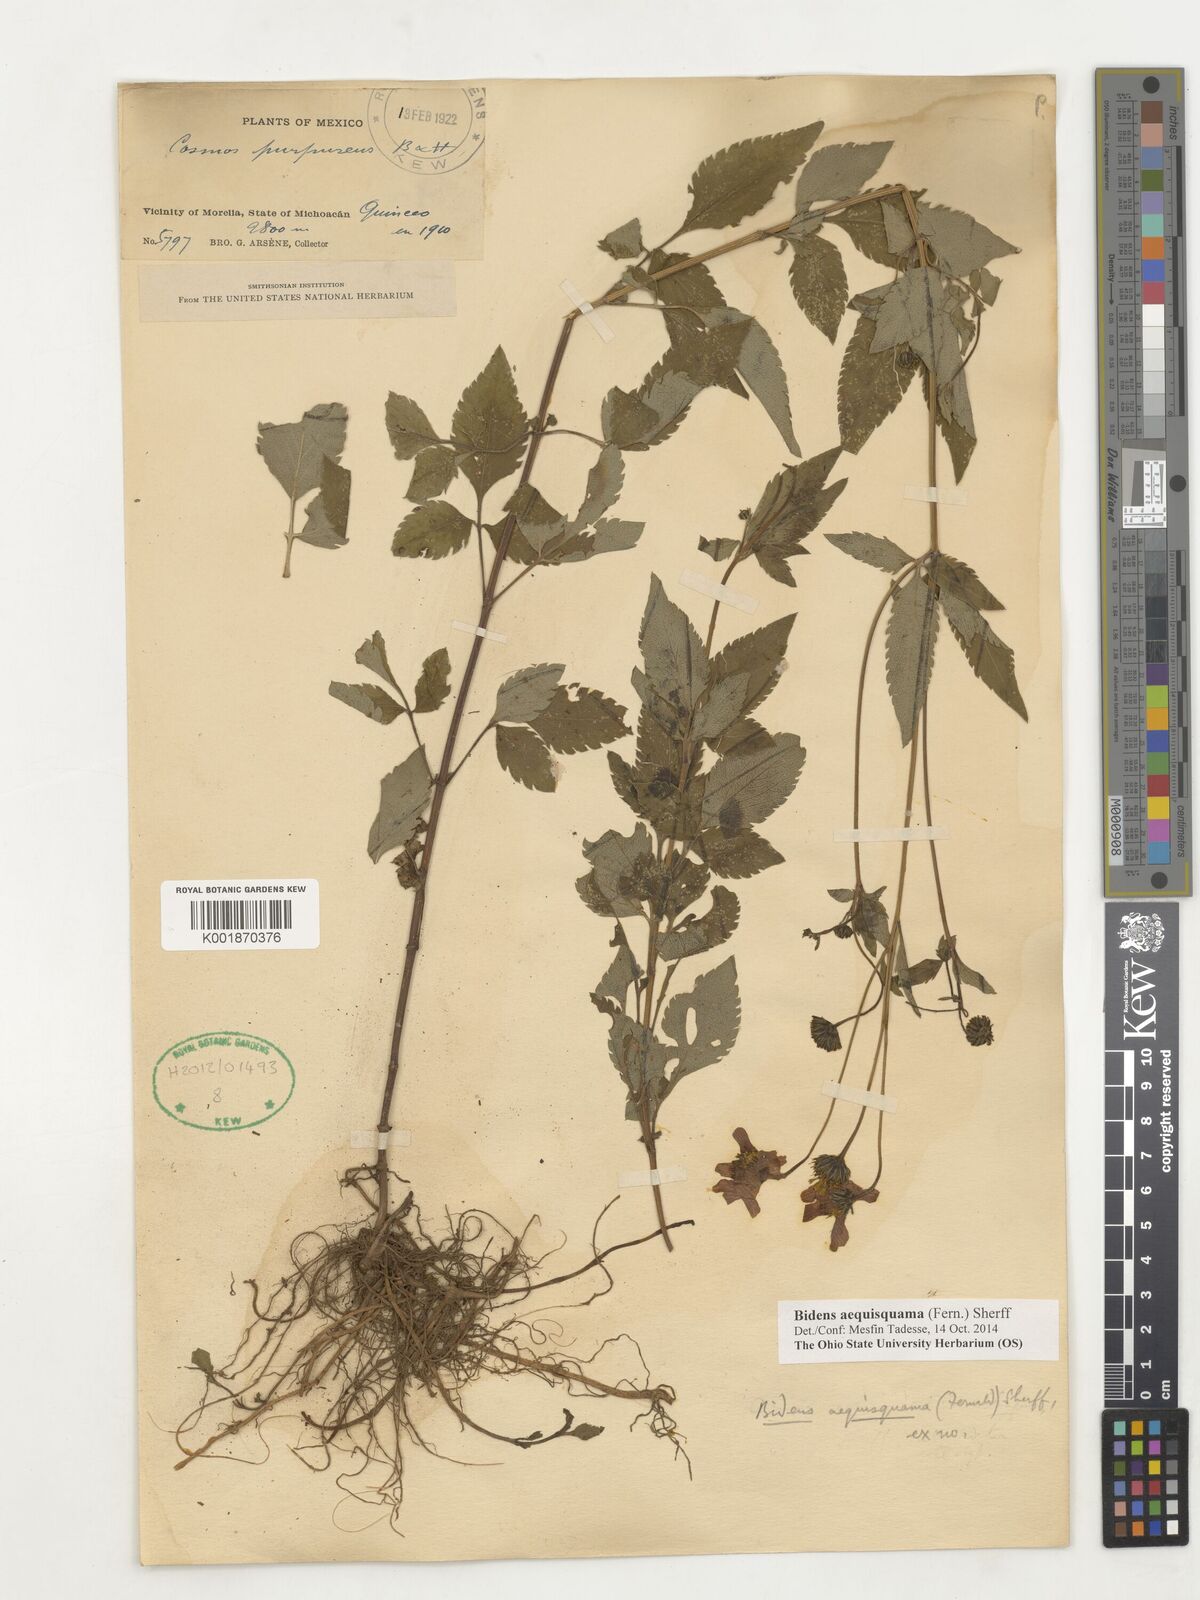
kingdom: Plantae
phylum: Tracheophyta
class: Magnoliopsida
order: Asterales
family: Asteraceae
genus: Bidens
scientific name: Bidens aequisquama
